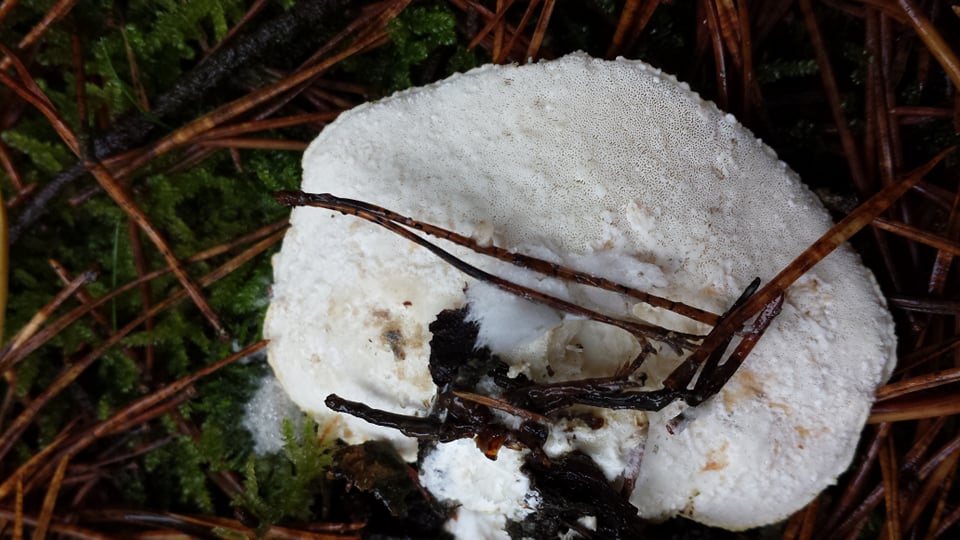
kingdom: Fungi
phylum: Basidiomycota
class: Agaricomycetes
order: Polyporales
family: Dacryobolaceae
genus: Postia
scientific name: Postia
